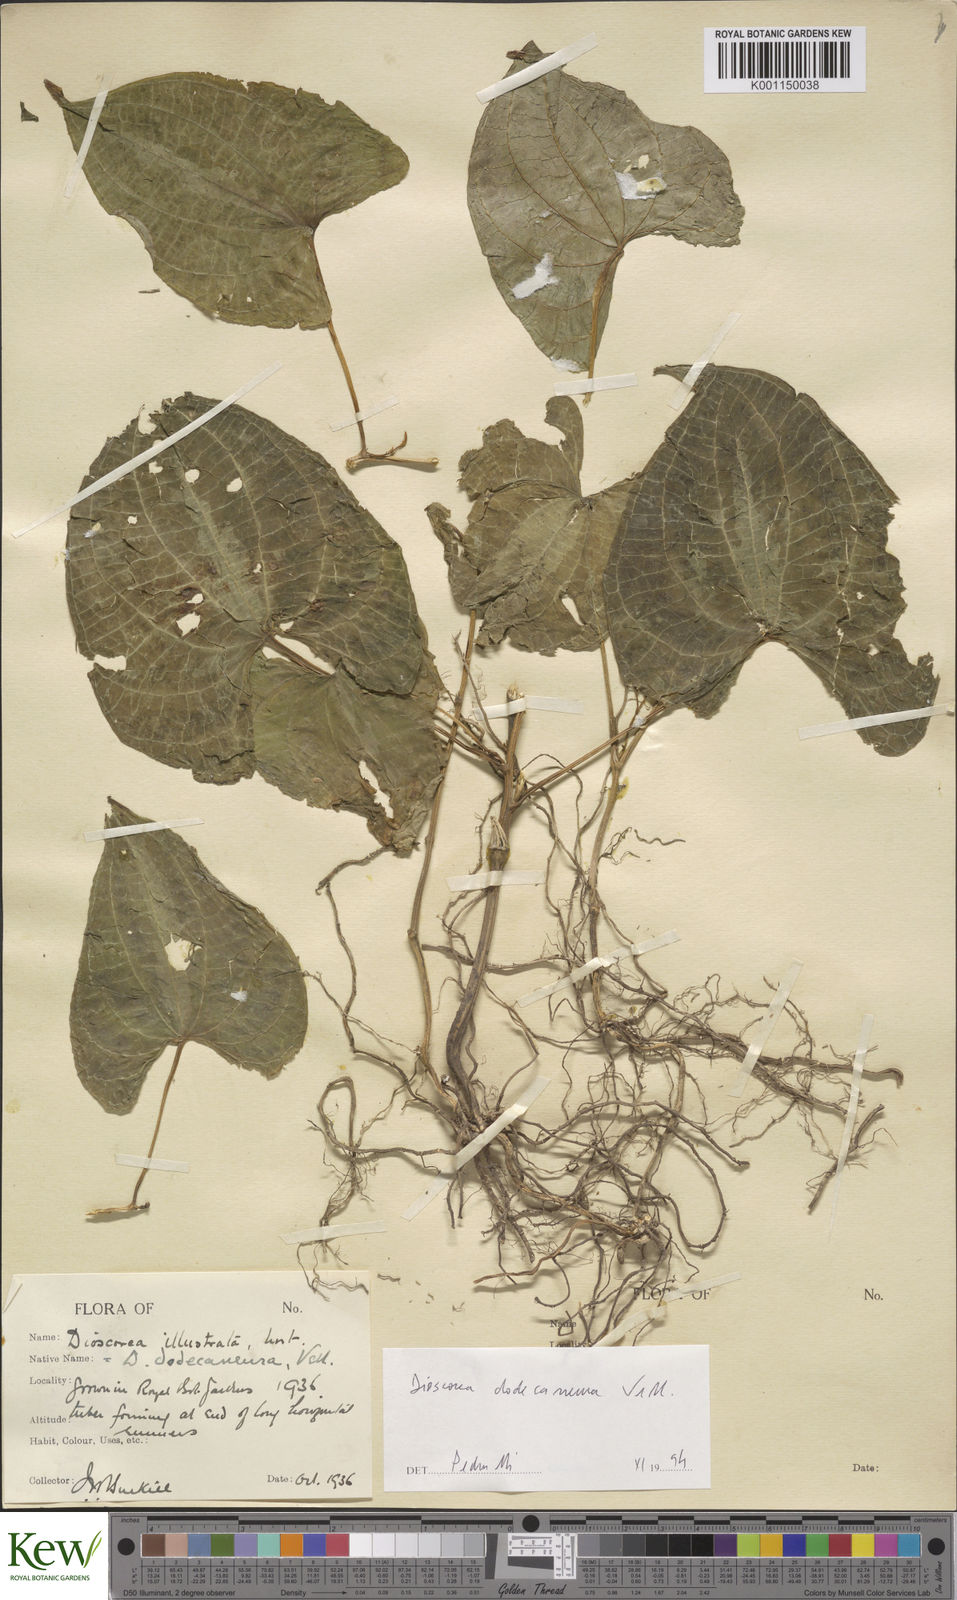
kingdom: Plantae
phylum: Tracheophyta
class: Liliopsida
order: Dioscoreales
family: Dioscoreaceae
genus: Dioscorea
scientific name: Dioscorea dodecaneura
